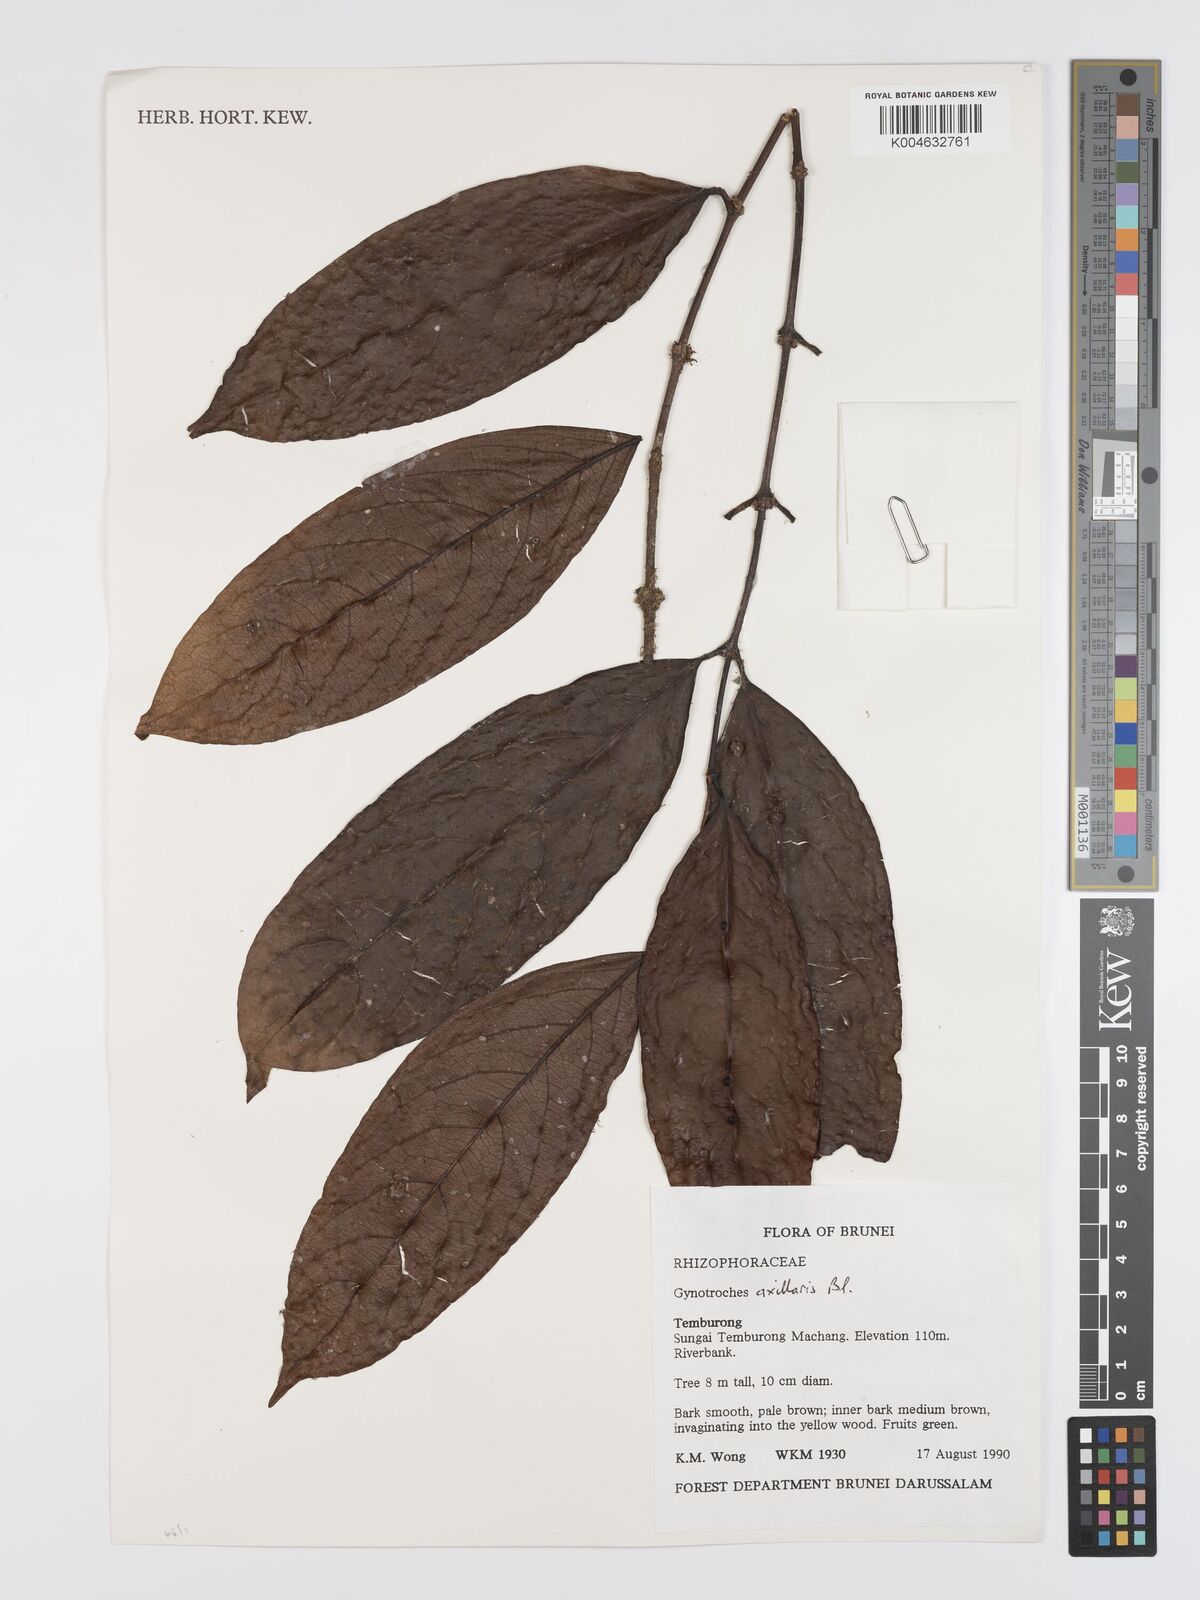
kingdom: Plantae
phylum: Tracheophyta
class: Magnoliopsida
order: Malpighiales
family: Rhizophoraceae
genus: Gynotroches
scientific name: Gynotroches axillaris
